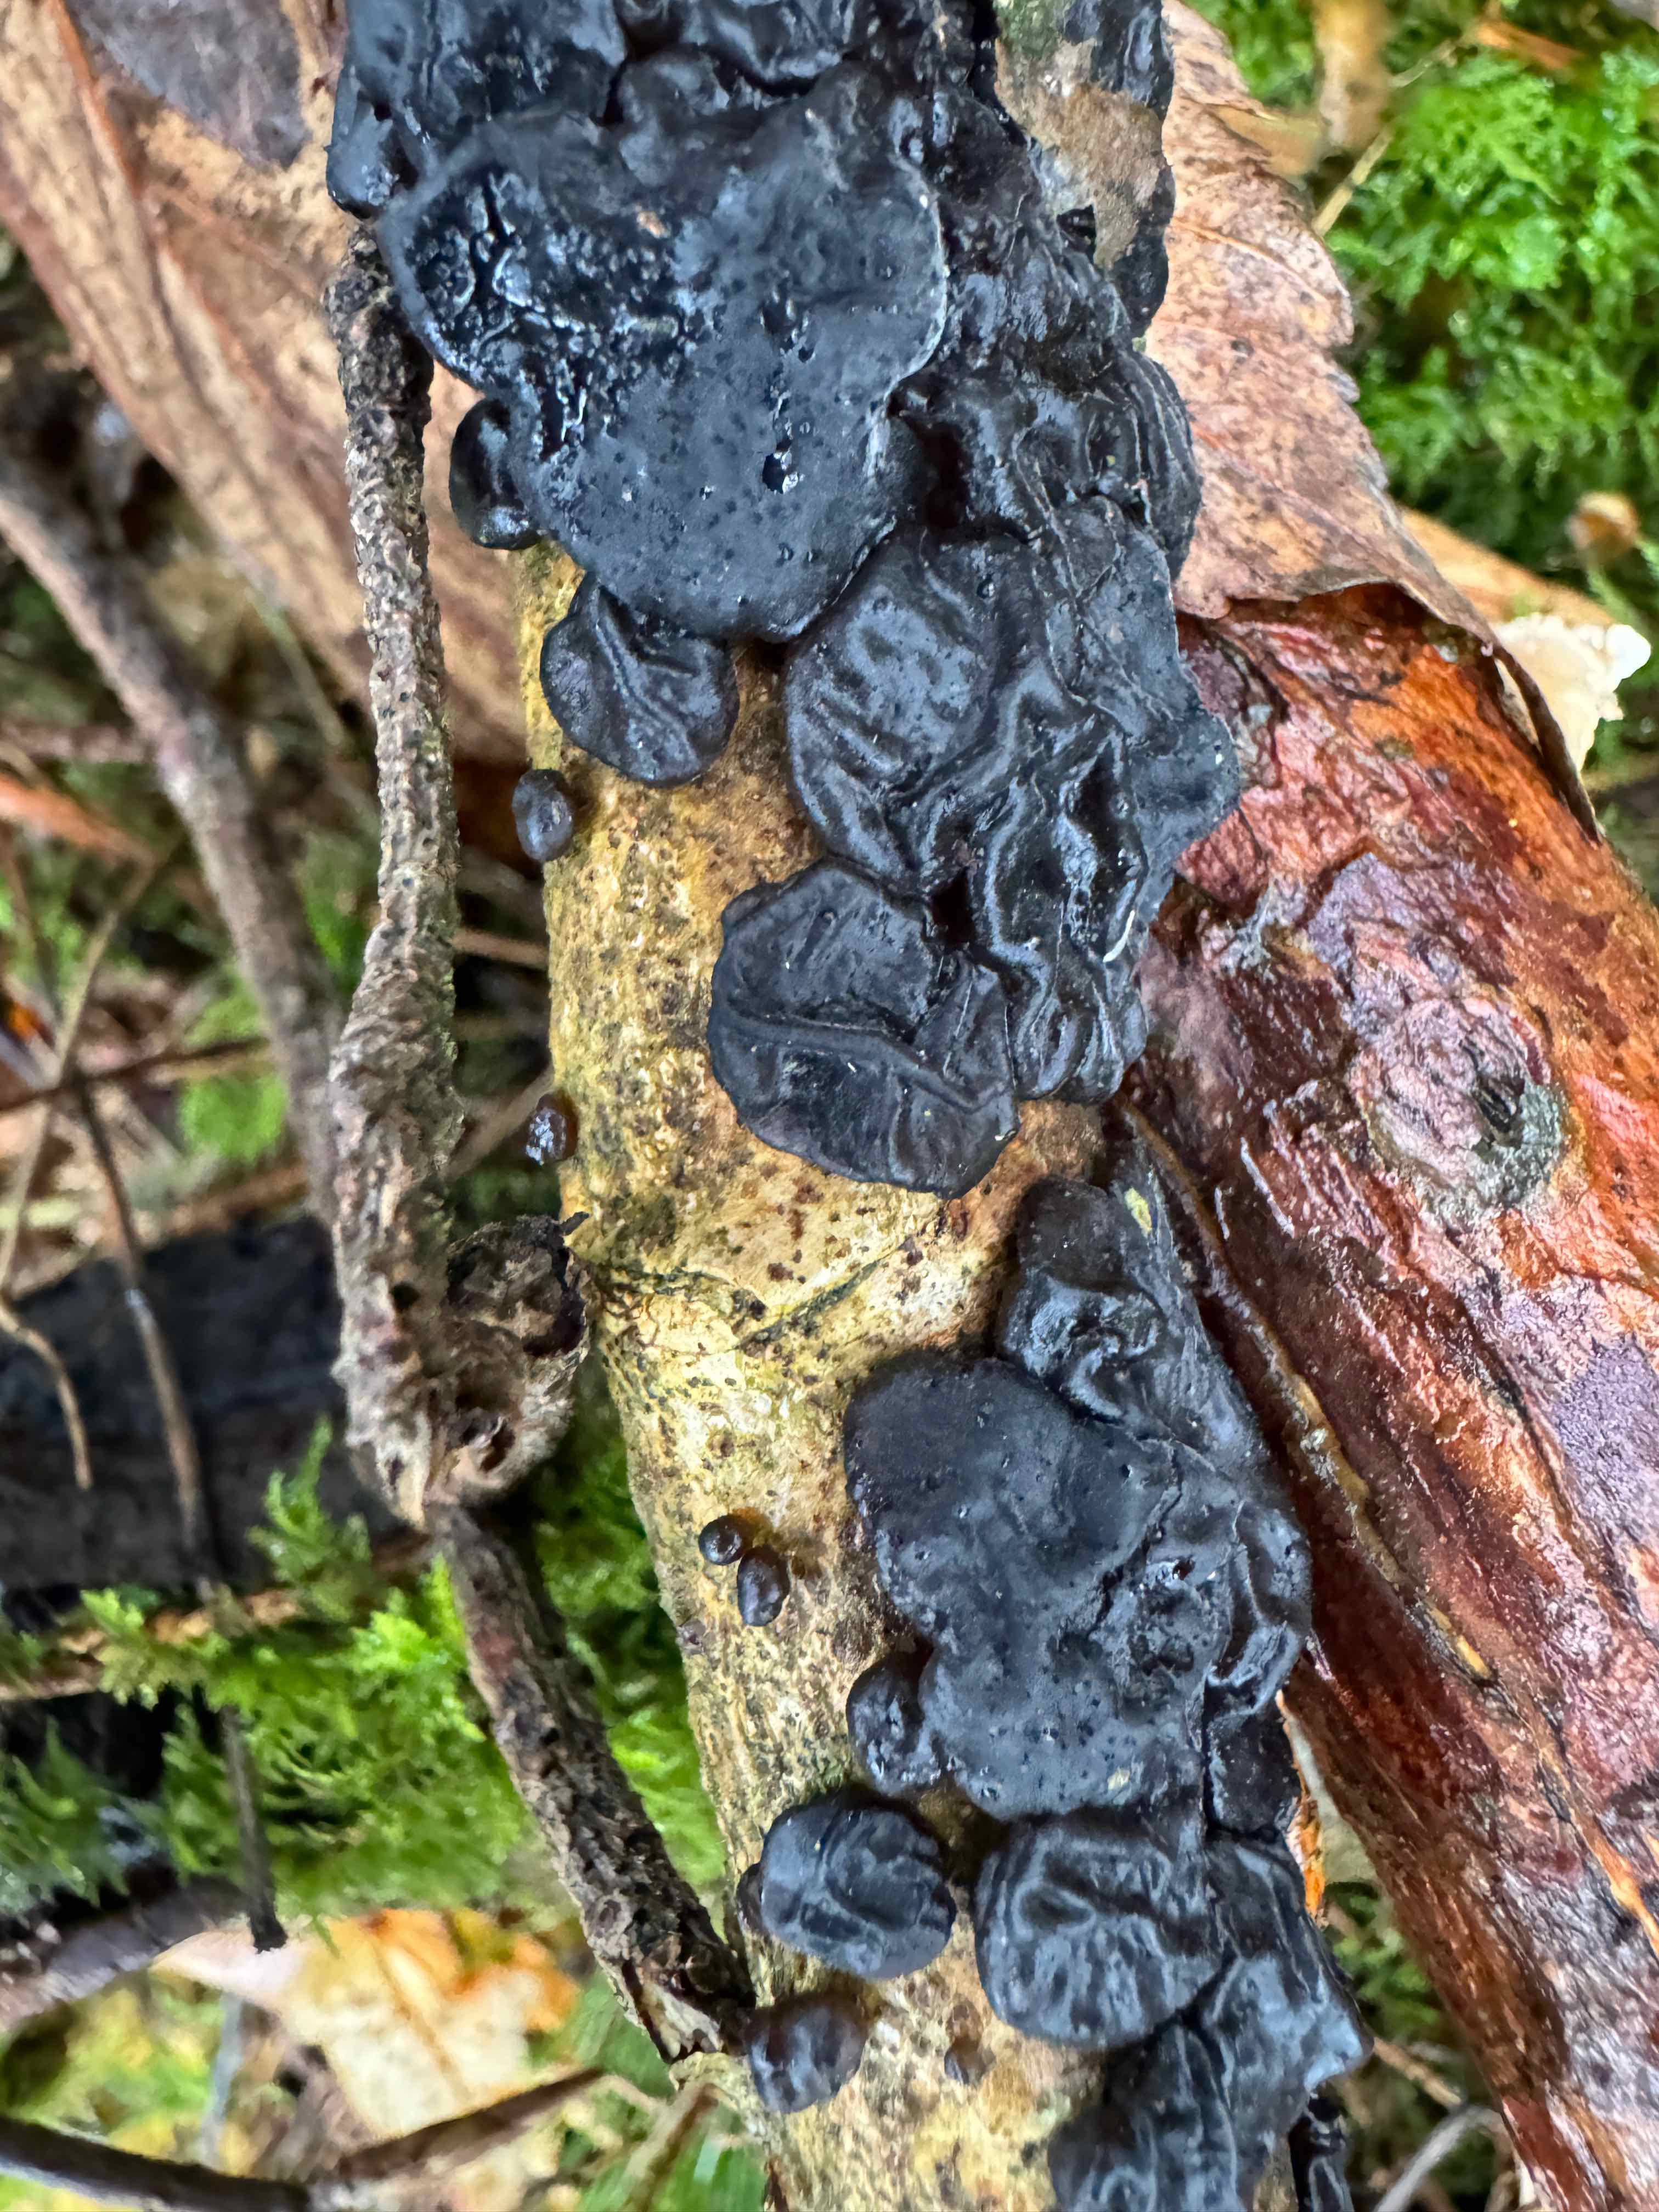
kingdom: Fungi
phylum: Basidiomycota
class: Agaricomycetes
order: Auriculariales
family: Auriculariaceae
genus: Exidia
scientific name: Exidia nigricans
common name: almindelig bævretop
